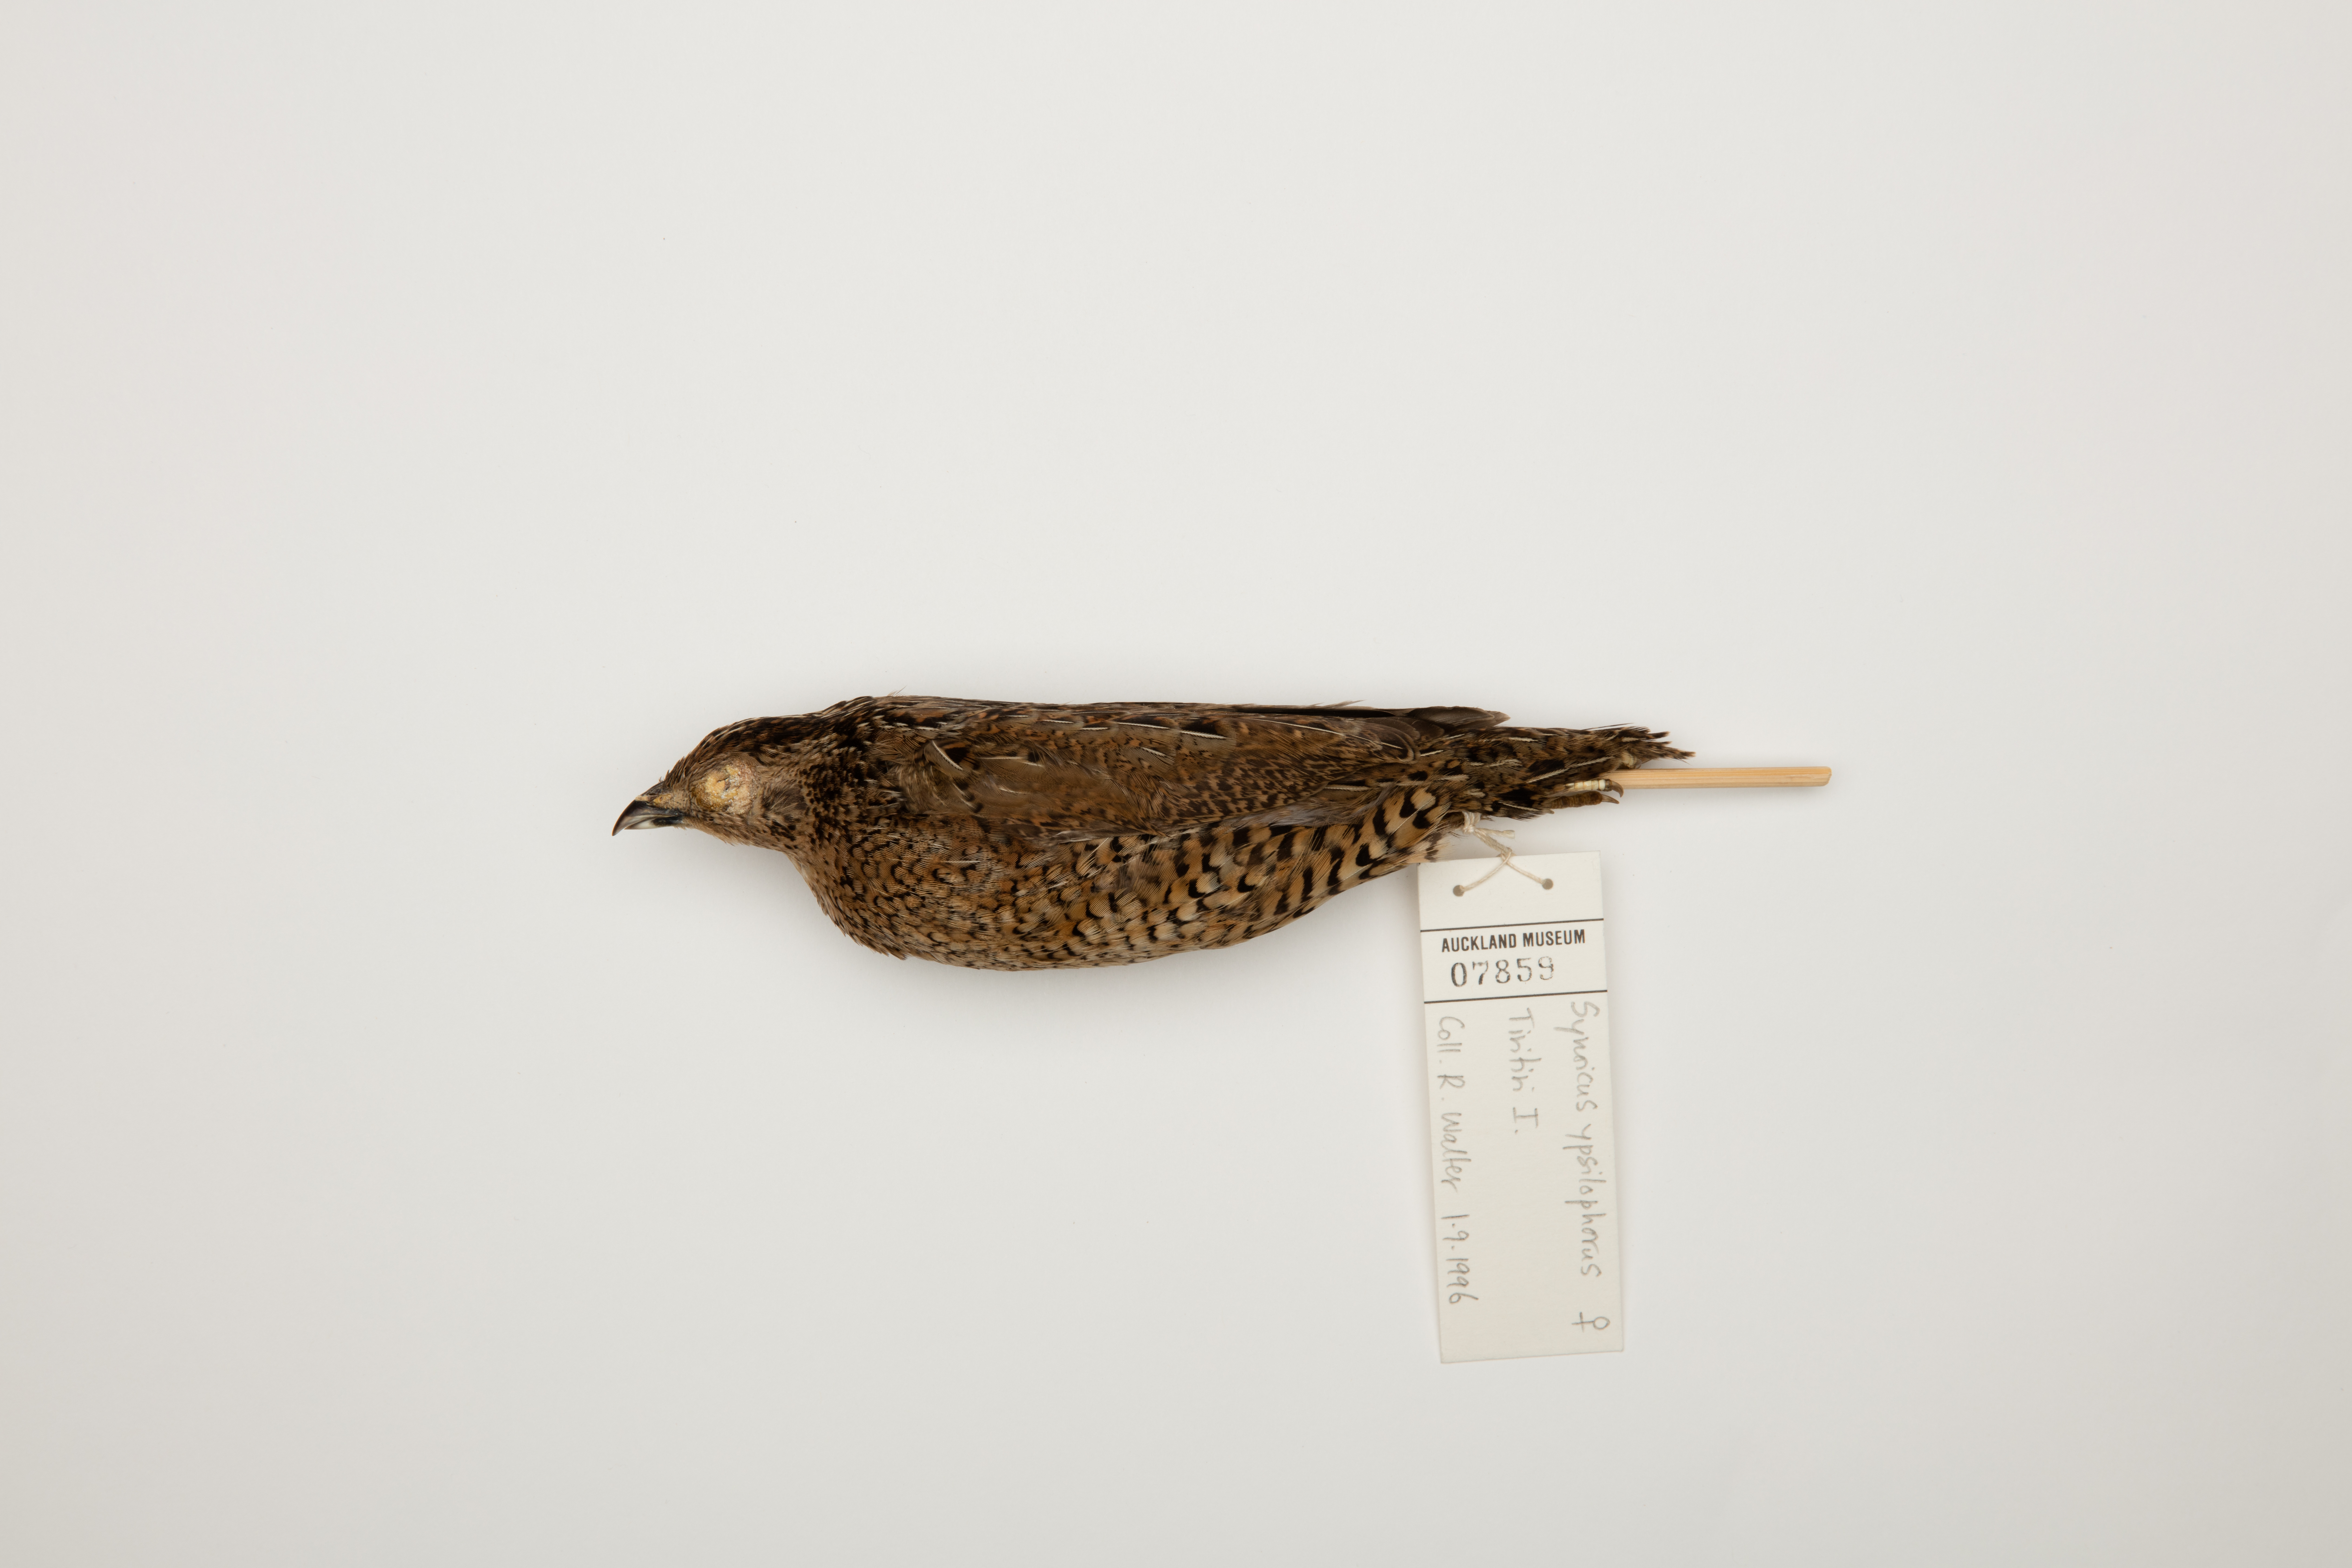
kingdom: Animalia
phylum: Chordata
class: Aves
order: Galliformes
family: Phasianidae
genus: Synoicus
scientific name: Synoicus ypsilophorus
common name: Brown quail
